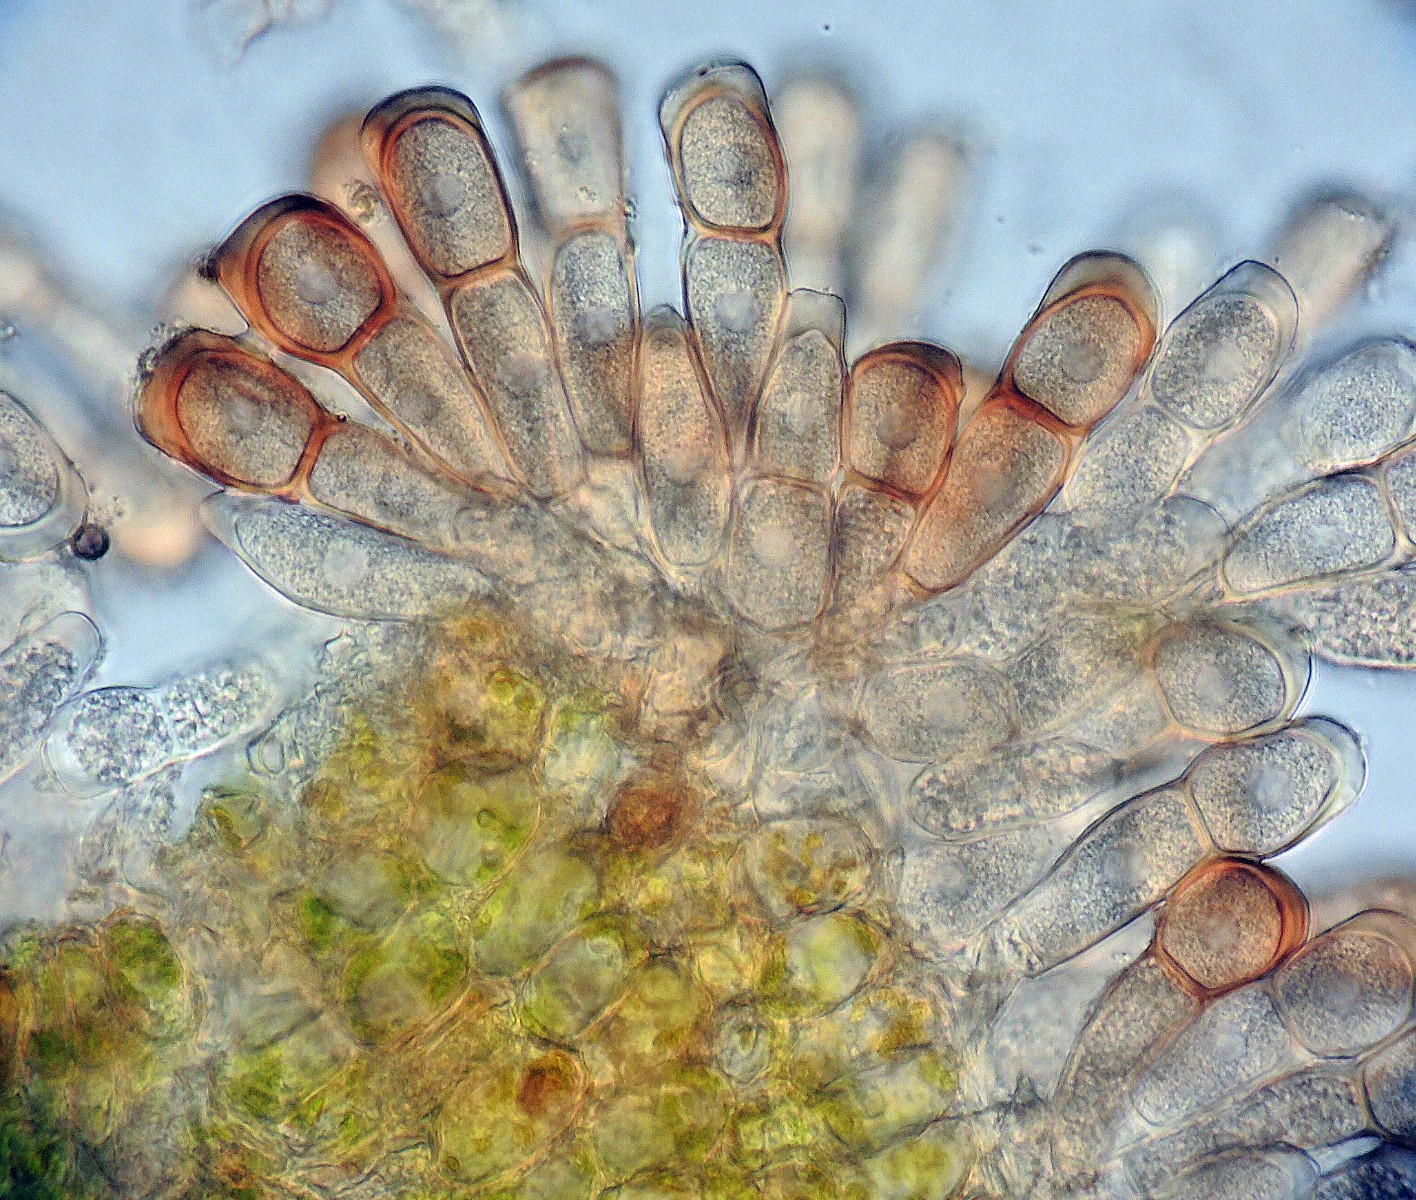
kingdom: Fungi
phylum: Basidiomycota
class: Pucciniomycetes
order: Pucciniales
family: Pucciniaceae
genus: Puccinia
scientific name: Puccinia urticata
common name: Nettle clustercup rust fungus
